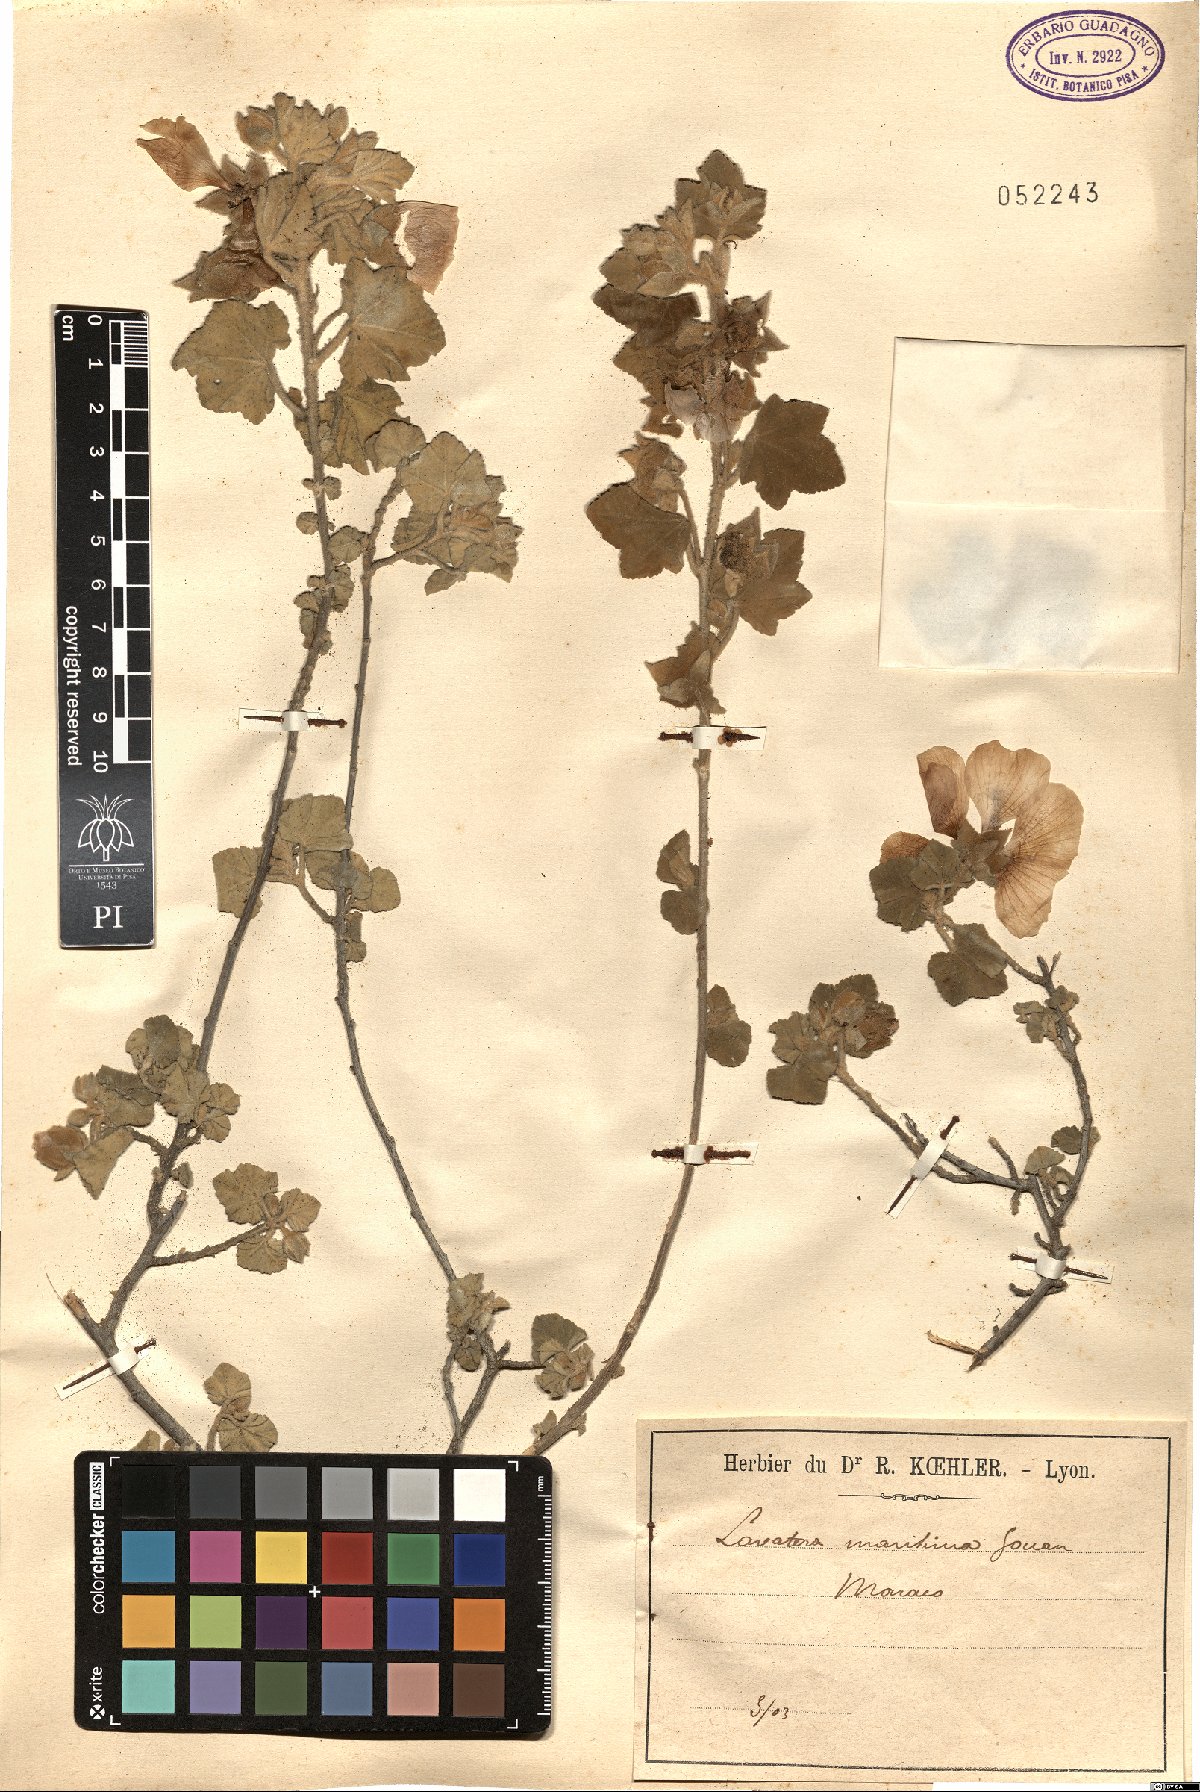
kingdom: Plantae
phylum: Tracheophyta
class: Magnoliopsida
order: Malvales
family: Malvaceae
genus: Malva
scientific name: Malva subovata
